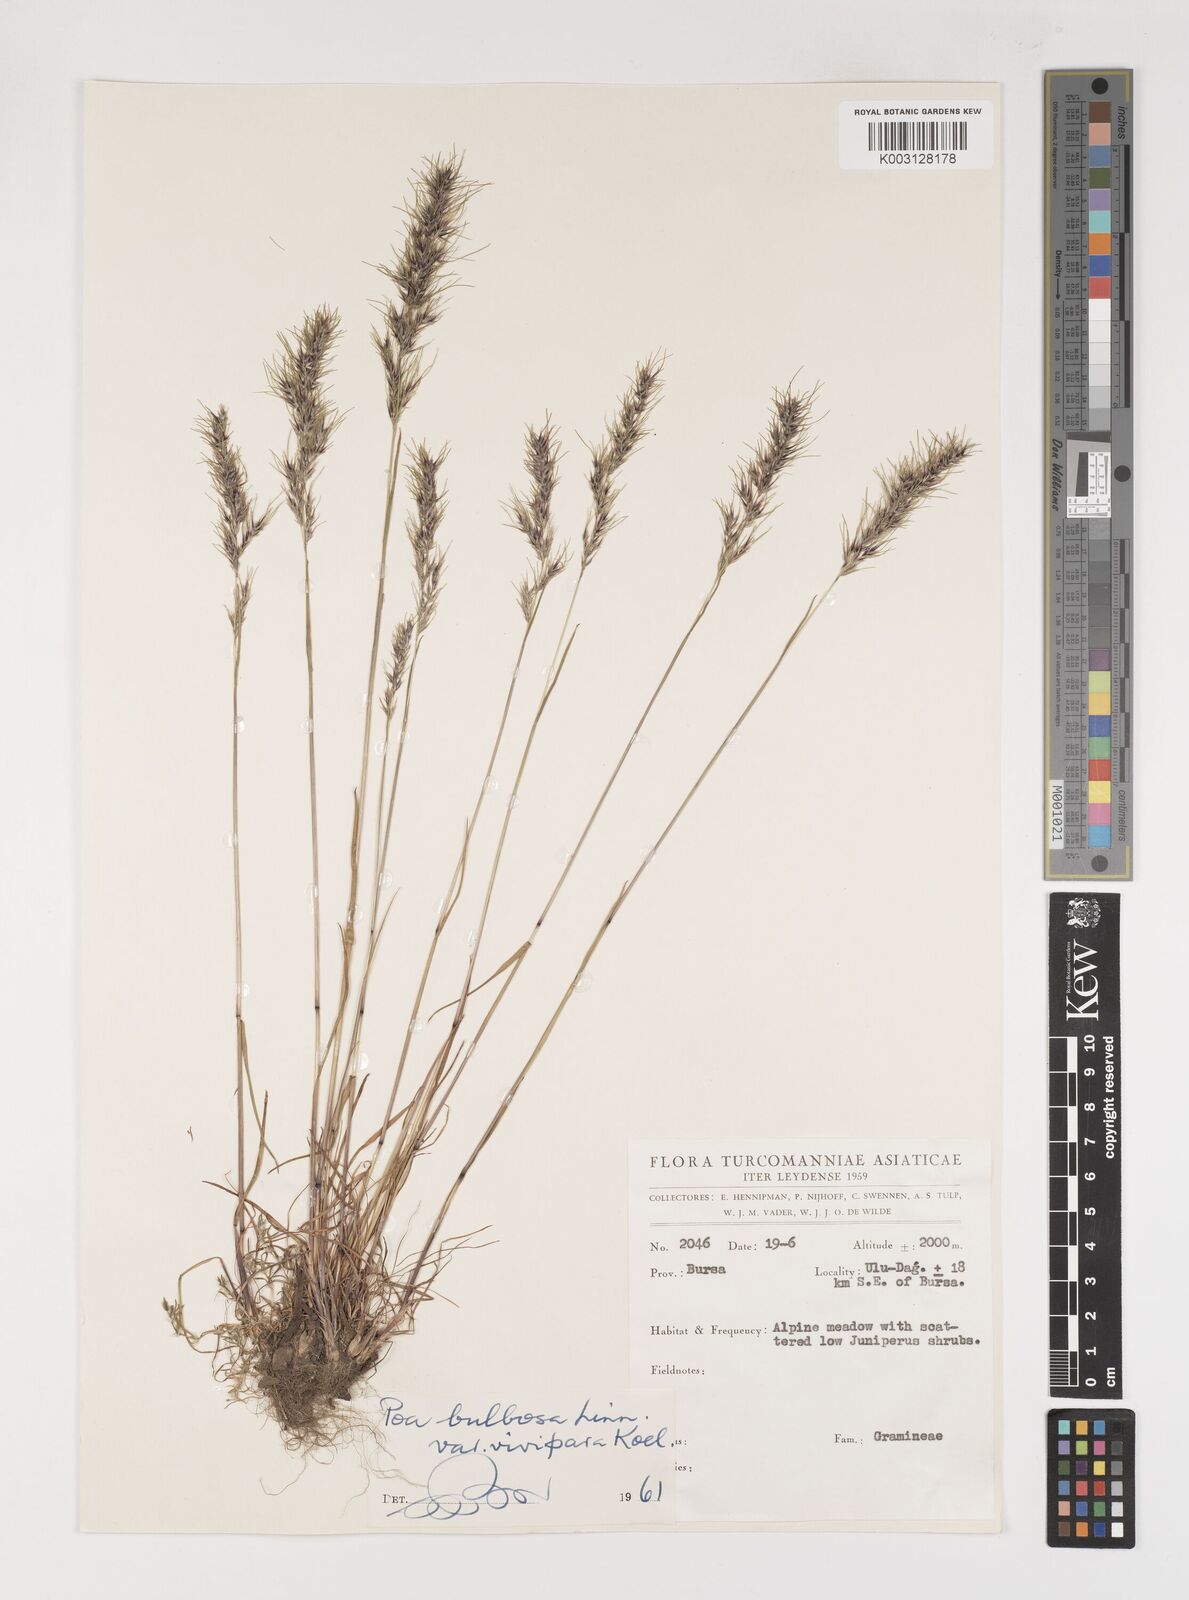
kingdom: Plantae
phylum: Tracheophyta
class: Liliopsida
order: Poales
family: Poaceae
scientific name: Poaceae
